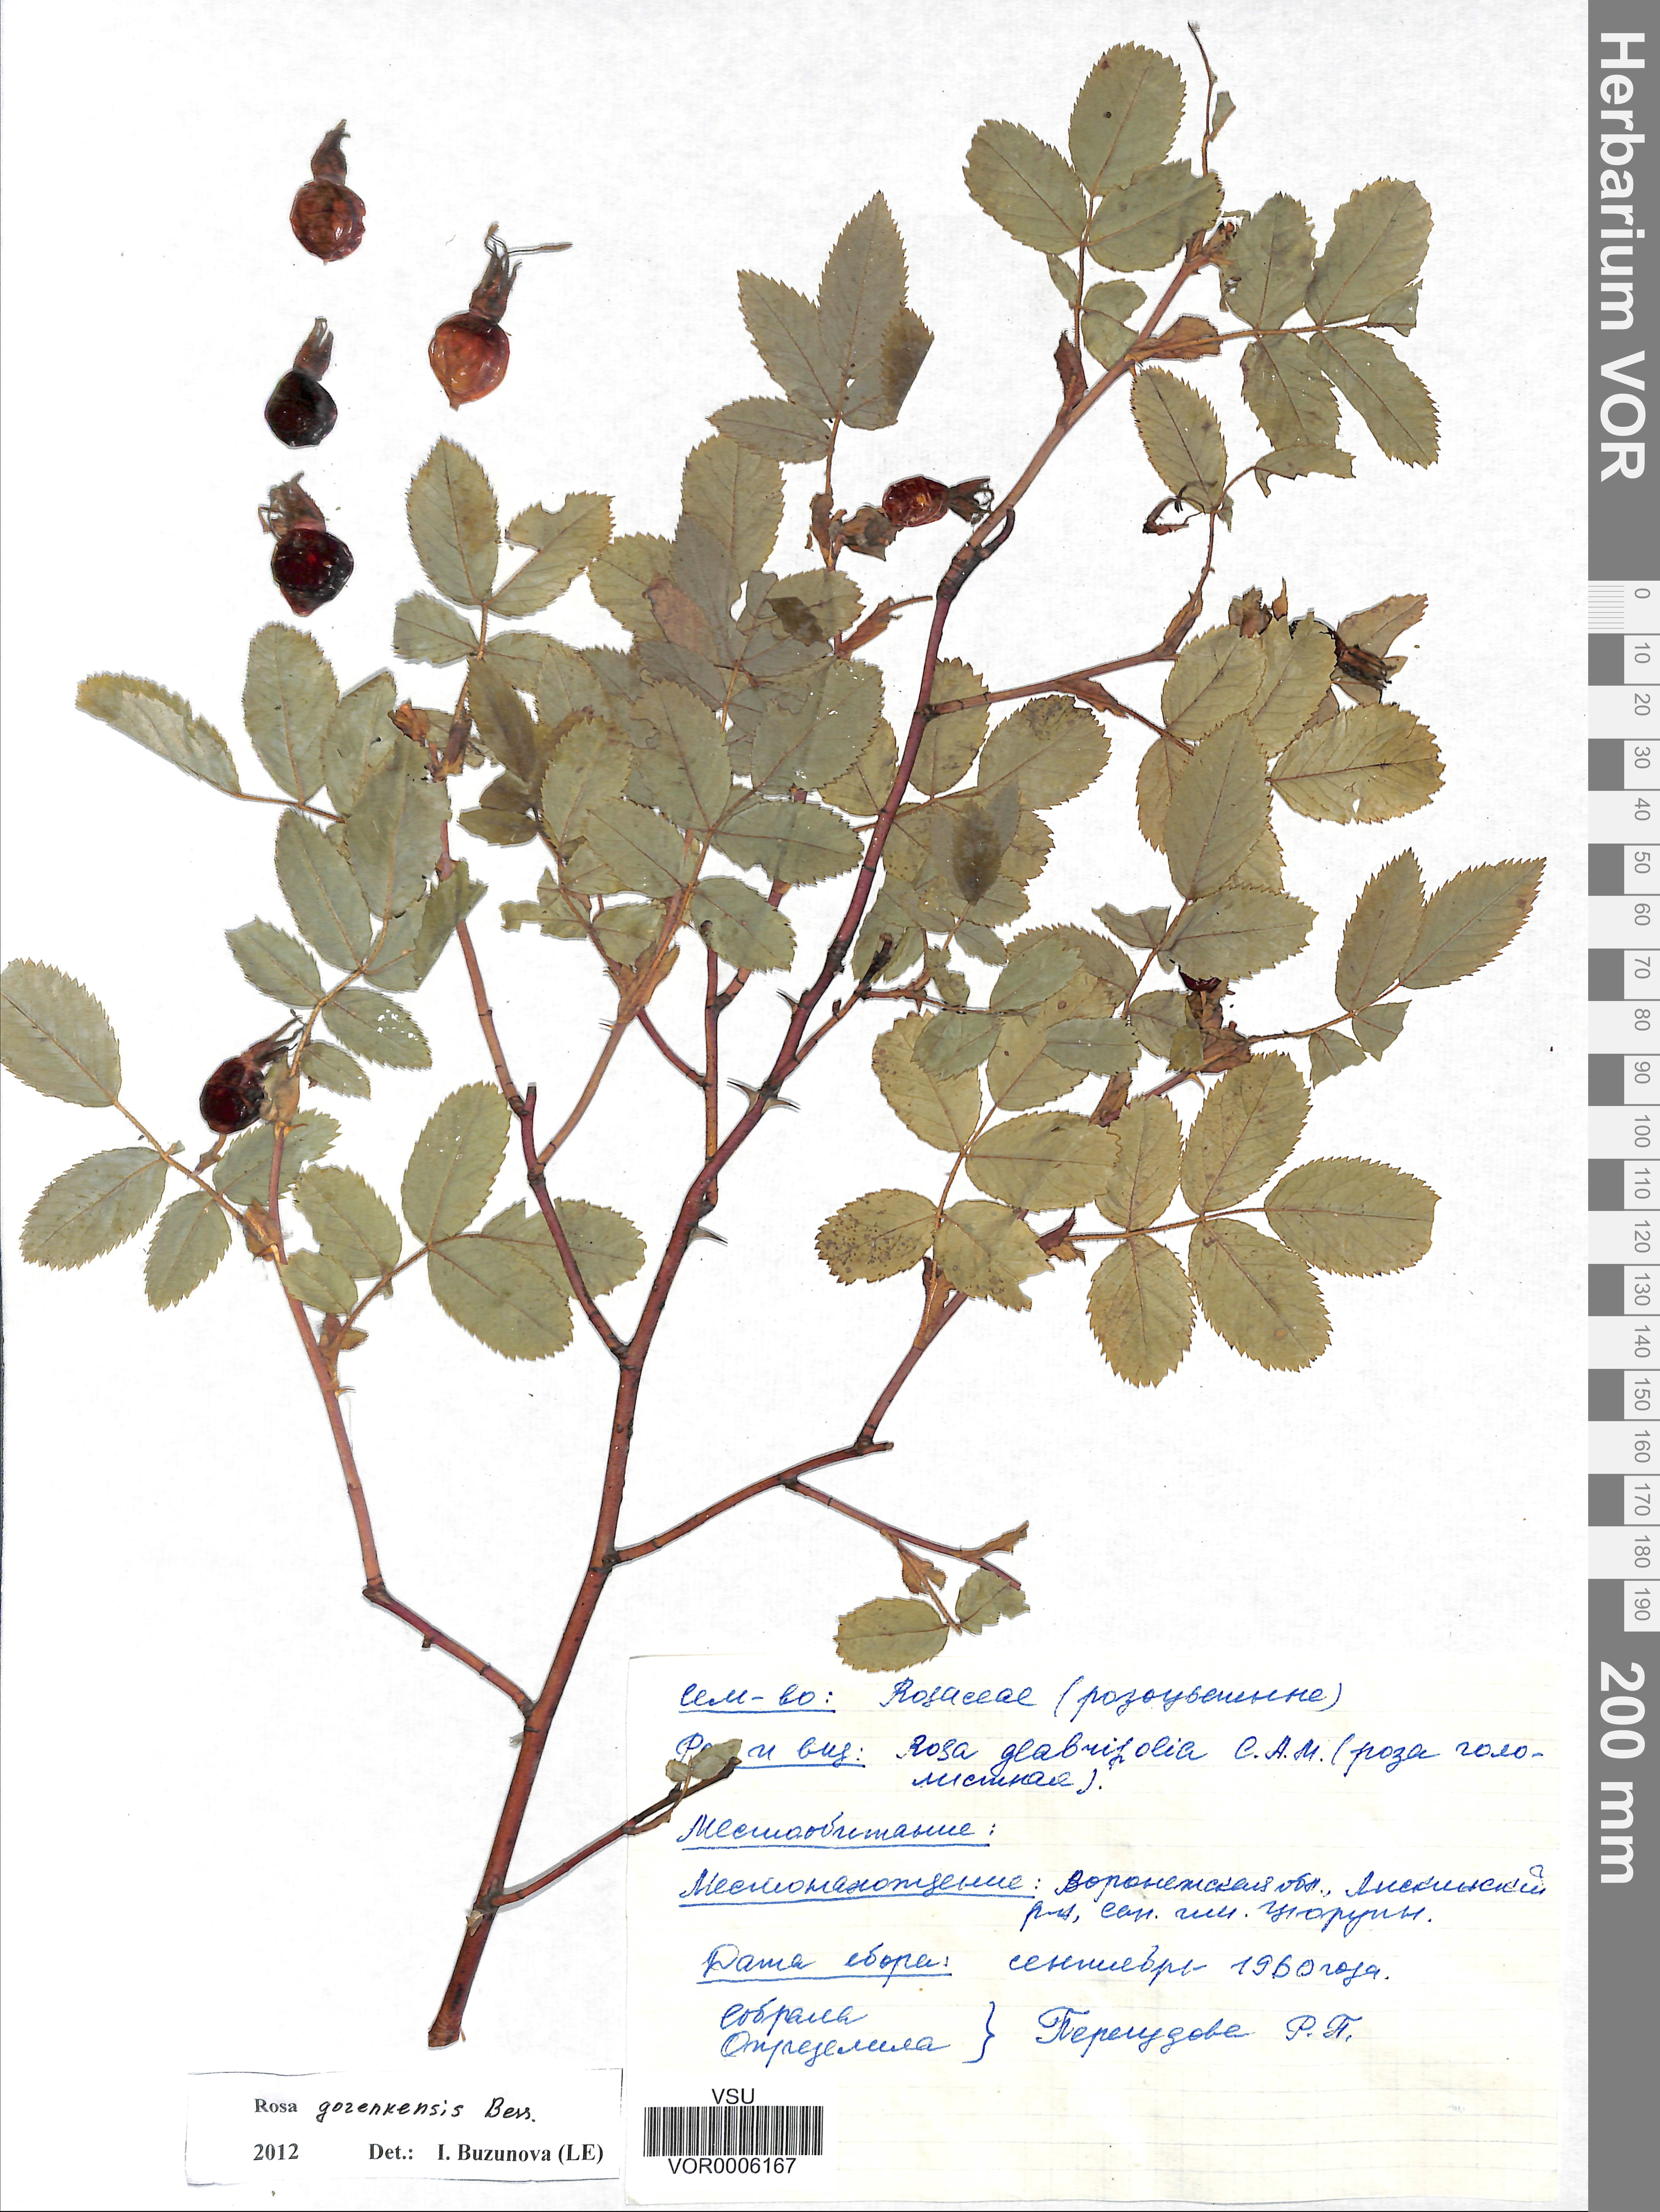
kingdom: Plantae
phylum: Tracheophyta
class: Magnoliopsida
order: Rosales
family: Rosaceae
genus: Rosa
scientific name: Rosa gorenkensis
